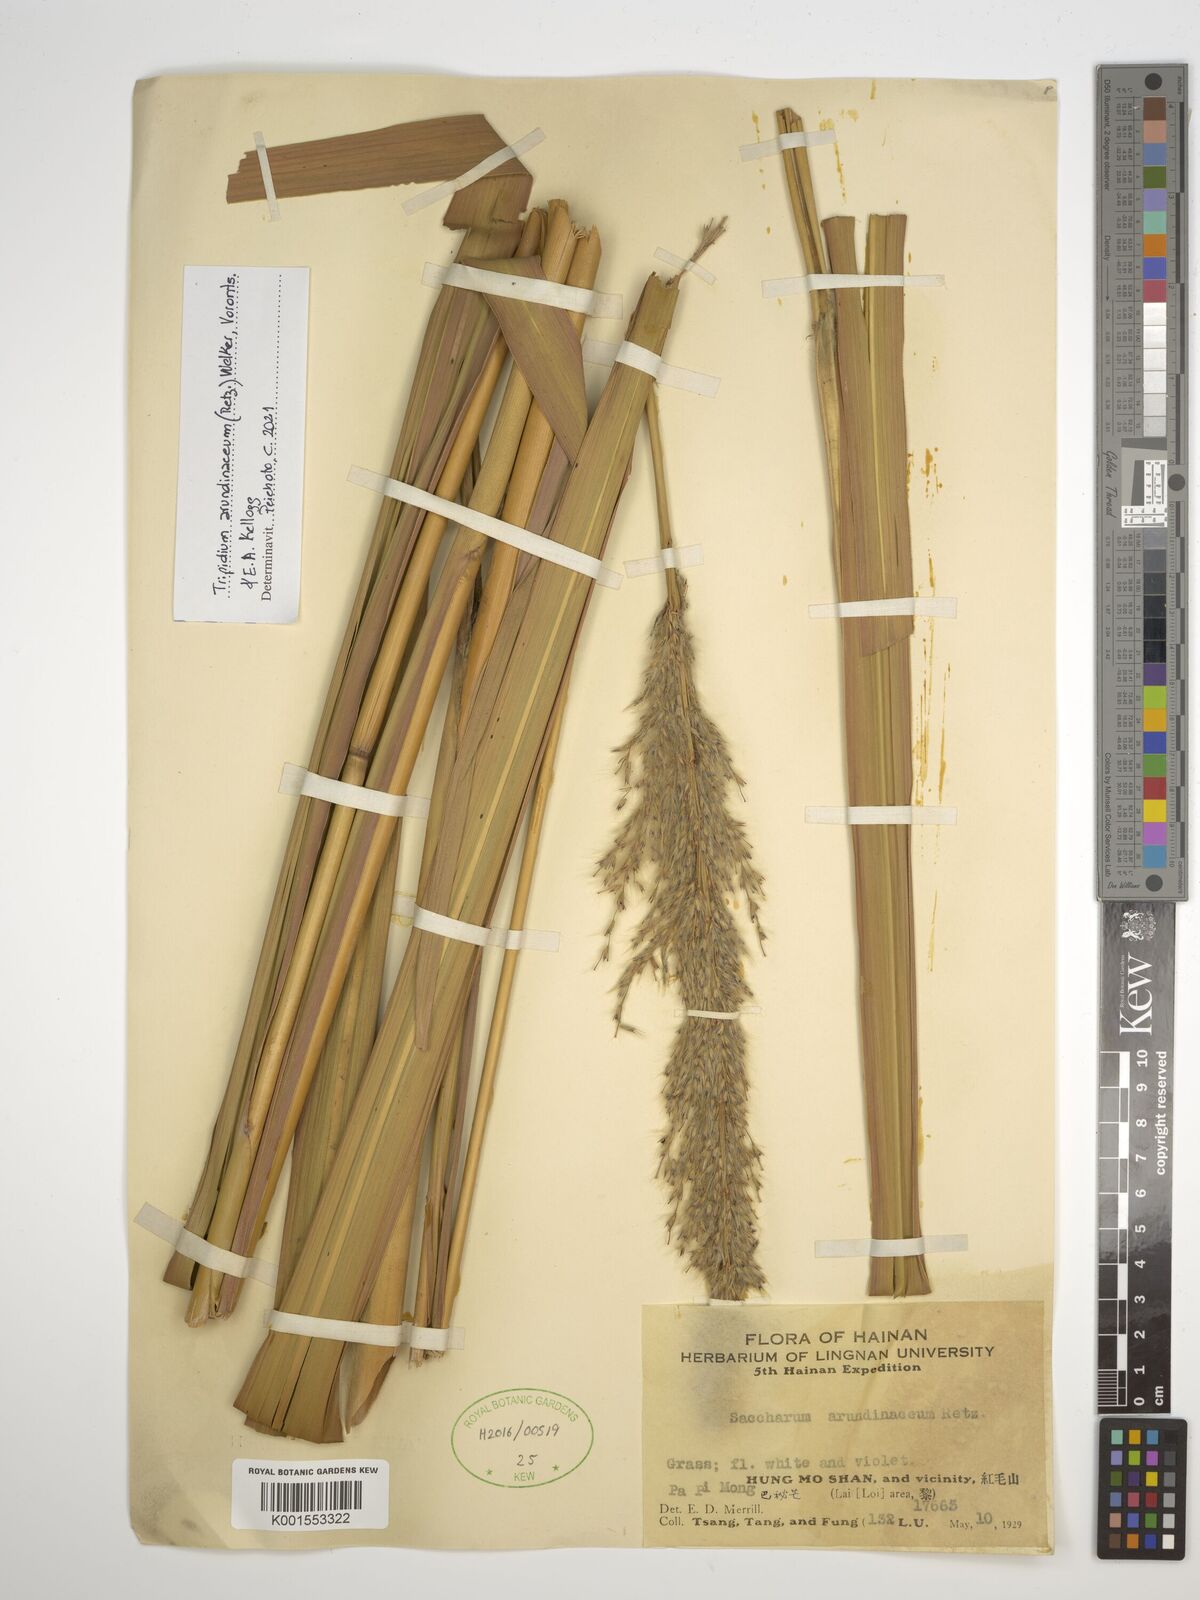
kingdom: Plantae
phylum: Tracheophyta
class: Liliopsida
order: Poales
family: Poaceae
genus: Tripidium
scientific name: Tripidium arundinaceum
